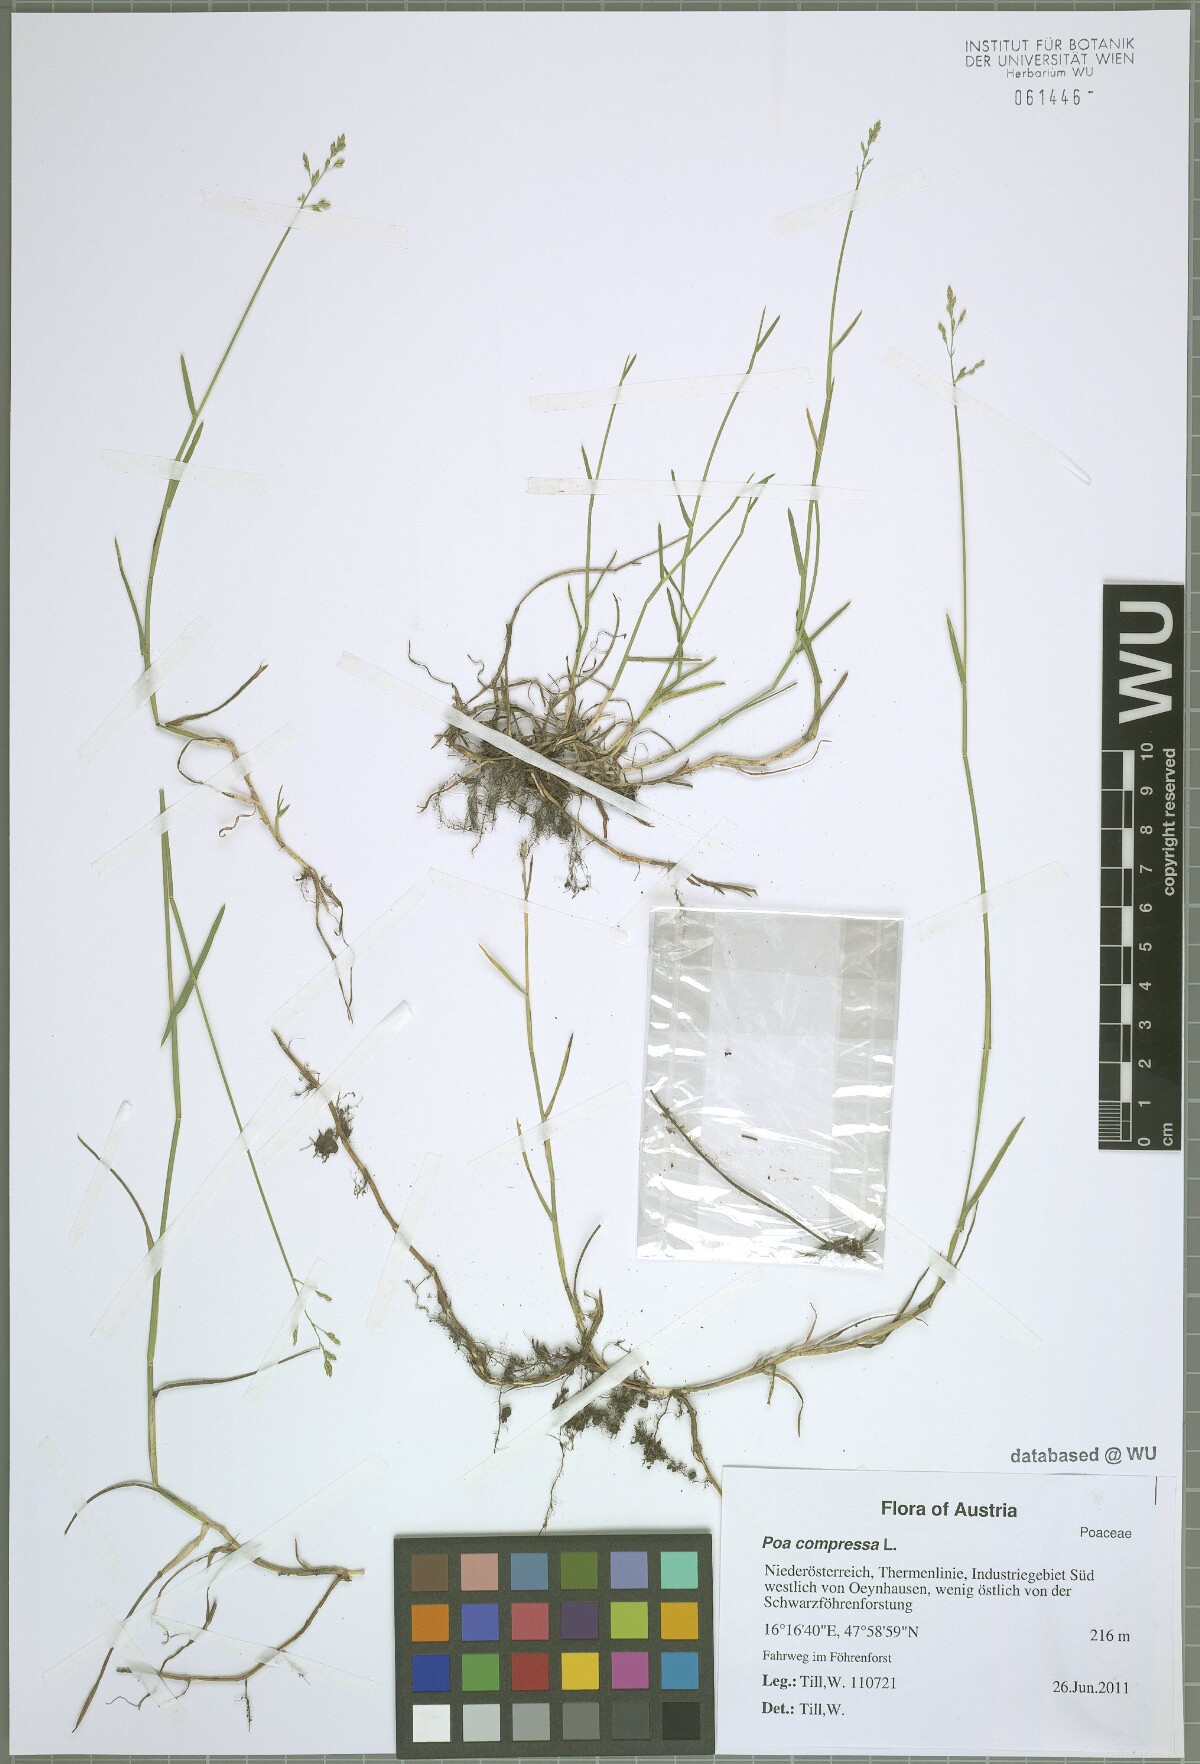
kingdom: Plantae
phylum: Tracheophyta
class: Liliopsida
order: Poales
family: Poaceae
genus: Poa
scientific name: Poa compressa
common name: Canada bluegrass
